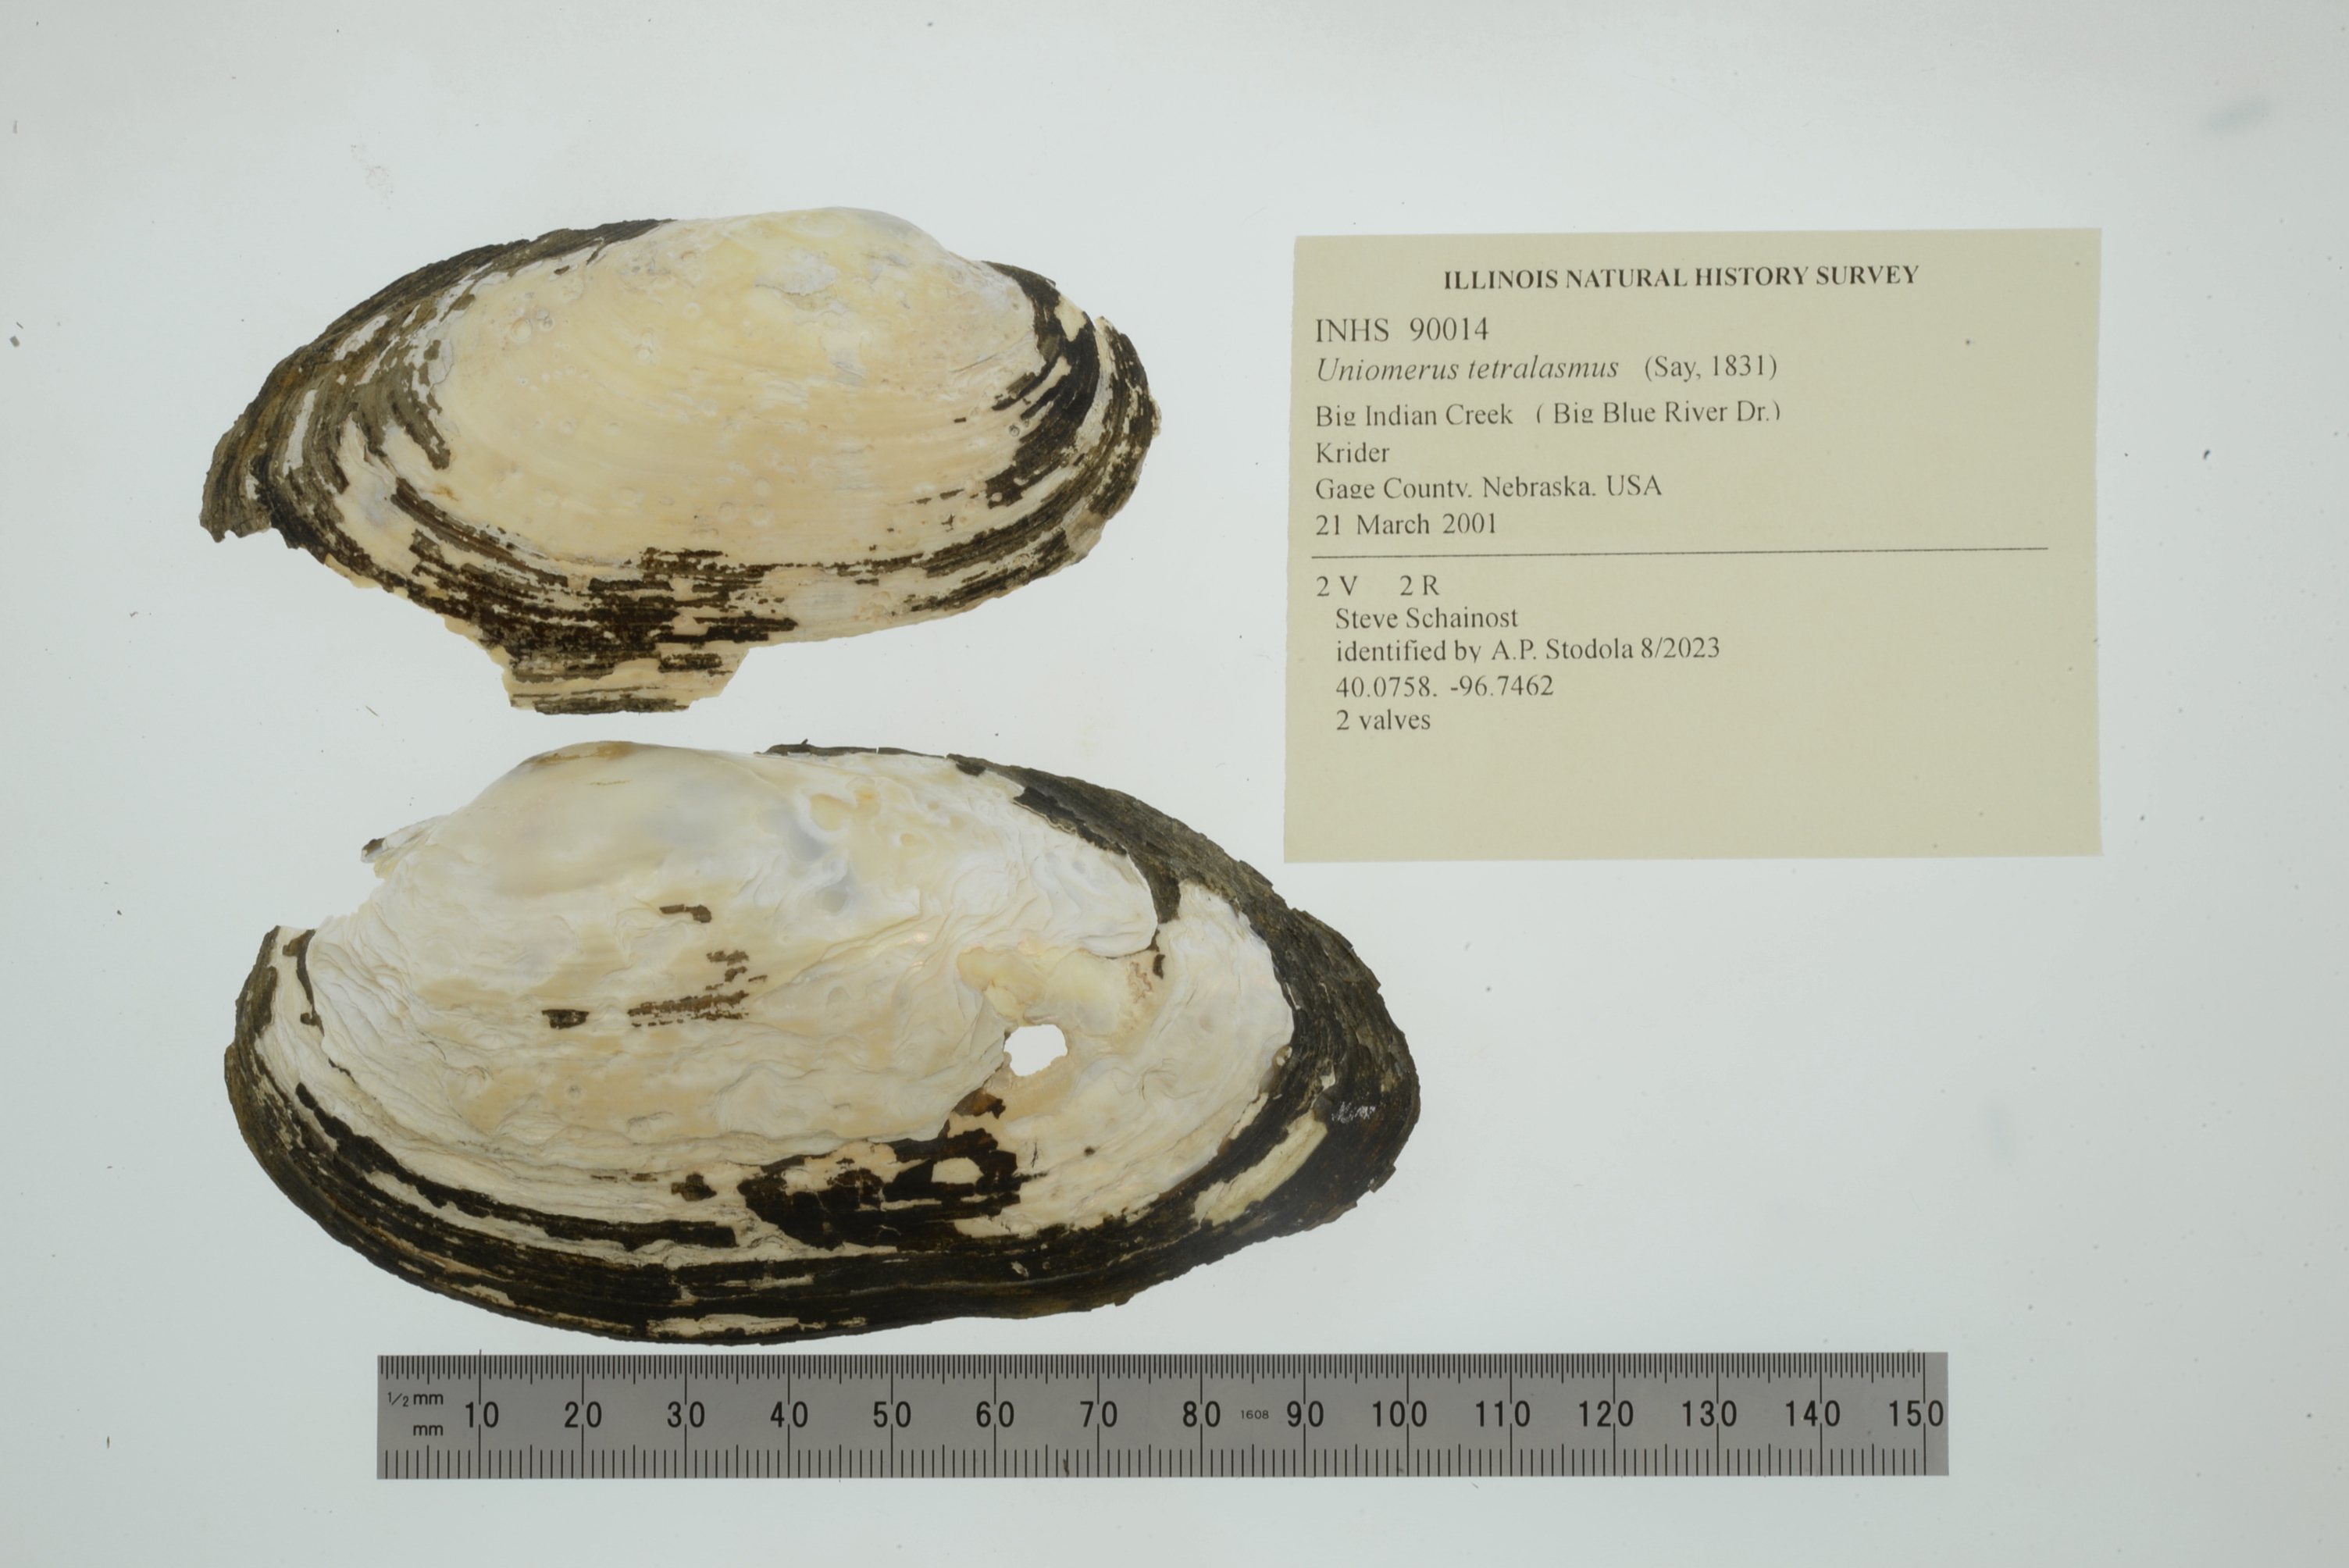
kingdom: Animalia
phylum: Mollusca
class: Bivalvia
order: Unionida
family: Unionidae
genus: Uniomerus
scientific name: Uniomerus tetralasmus
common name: Pondhorn
